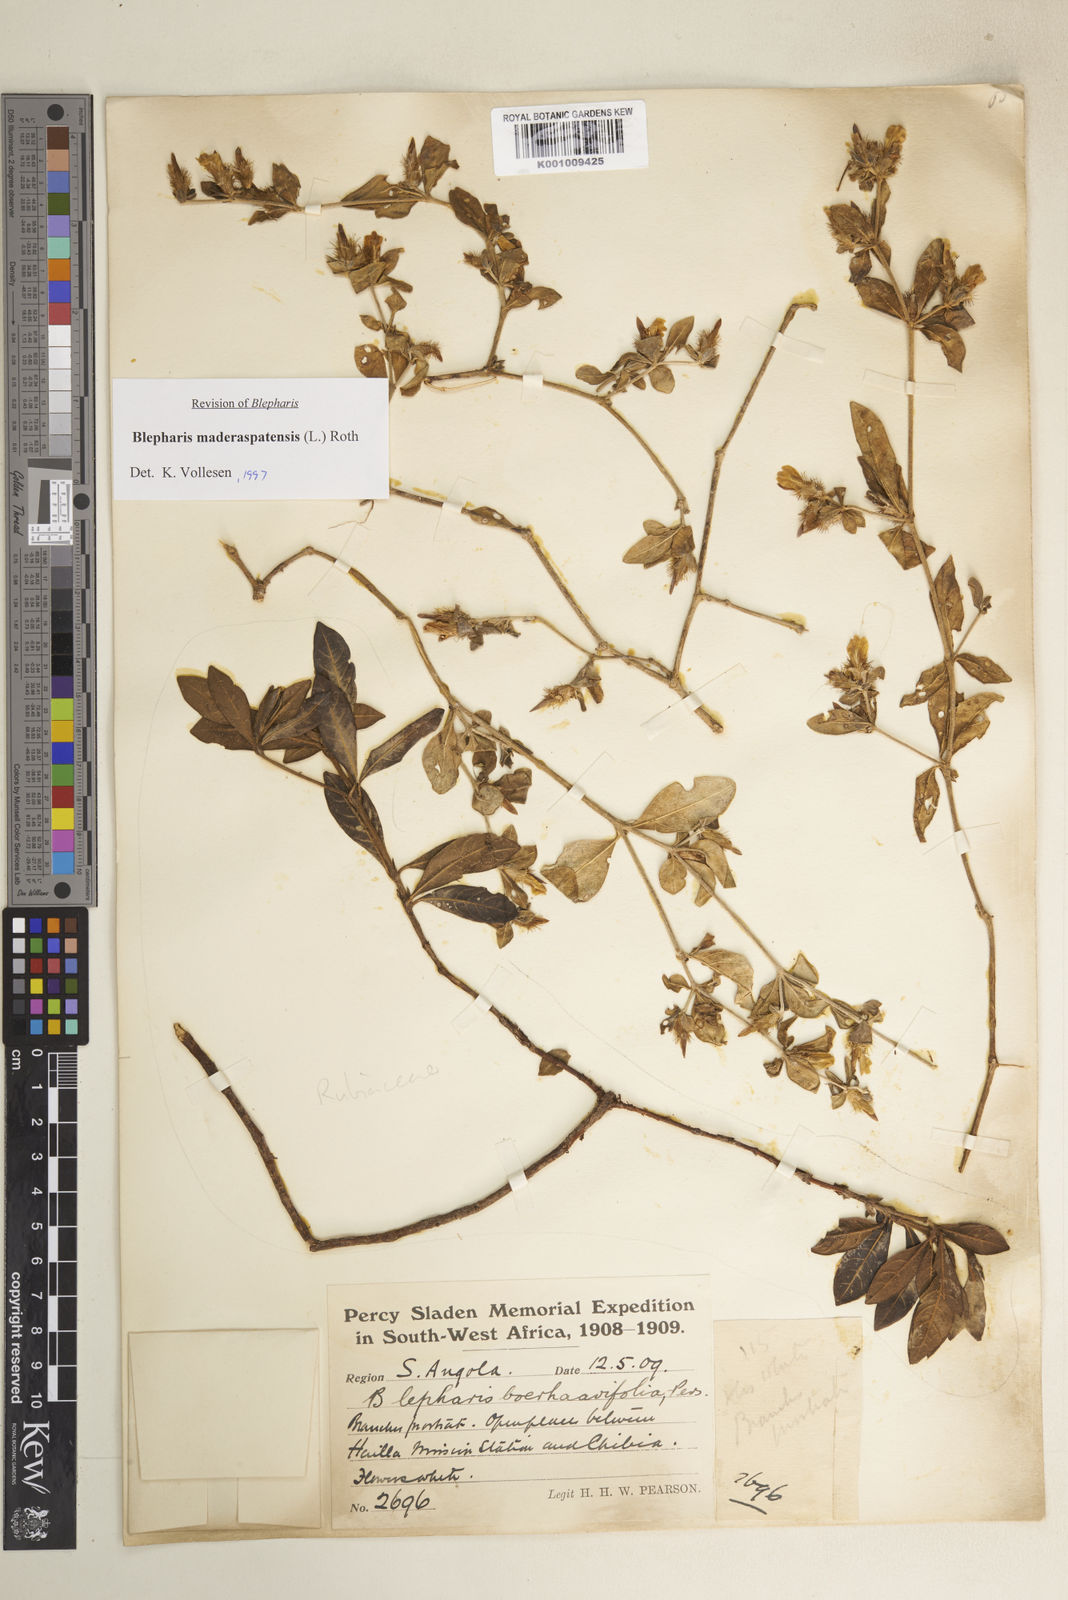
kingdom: Plantae
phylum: Tracheophyta
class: Magnoliopsida
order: Lamiales
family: Acanthaceae
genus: Blepharis
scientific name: Blepharis maderaspatensis
